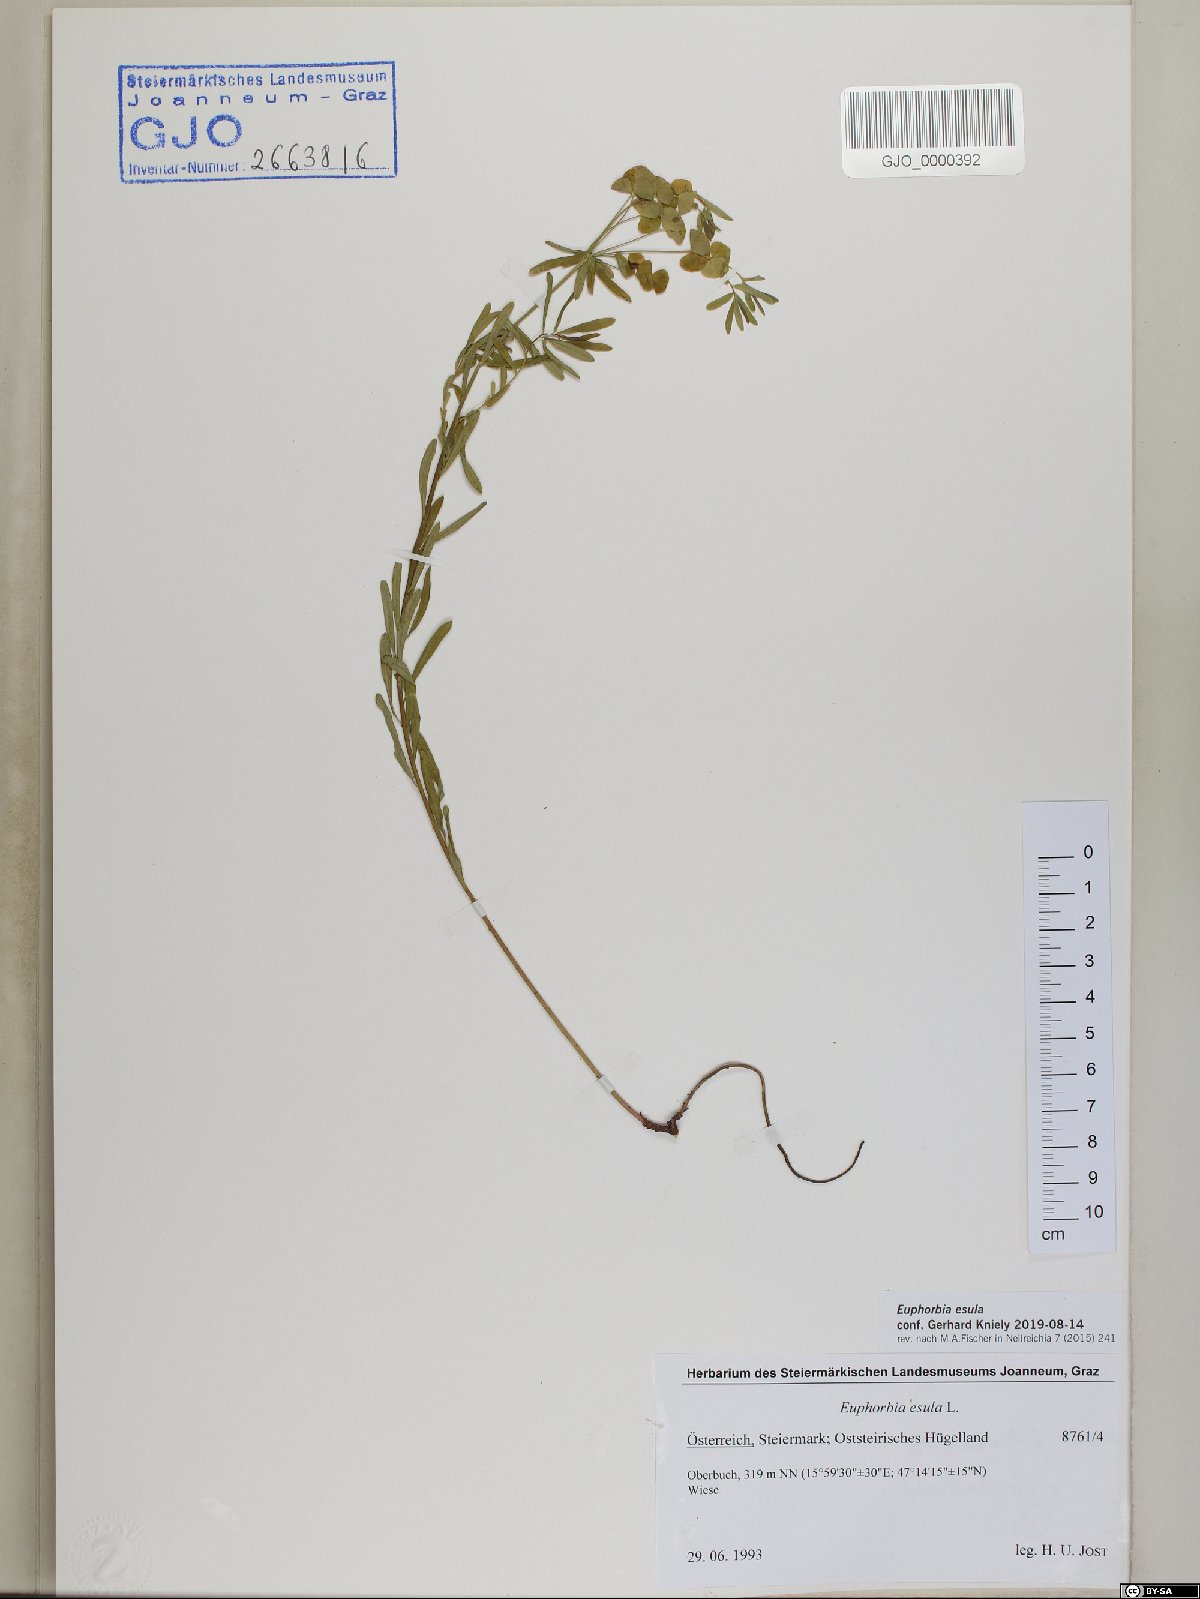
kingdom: Plantae
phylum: Tracheophyta
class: Magnoliopsida
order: Malpighiales
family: Euphorbiaceae
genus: Euphorbia
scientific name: Euphorbia esula
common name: Leafy spurge
